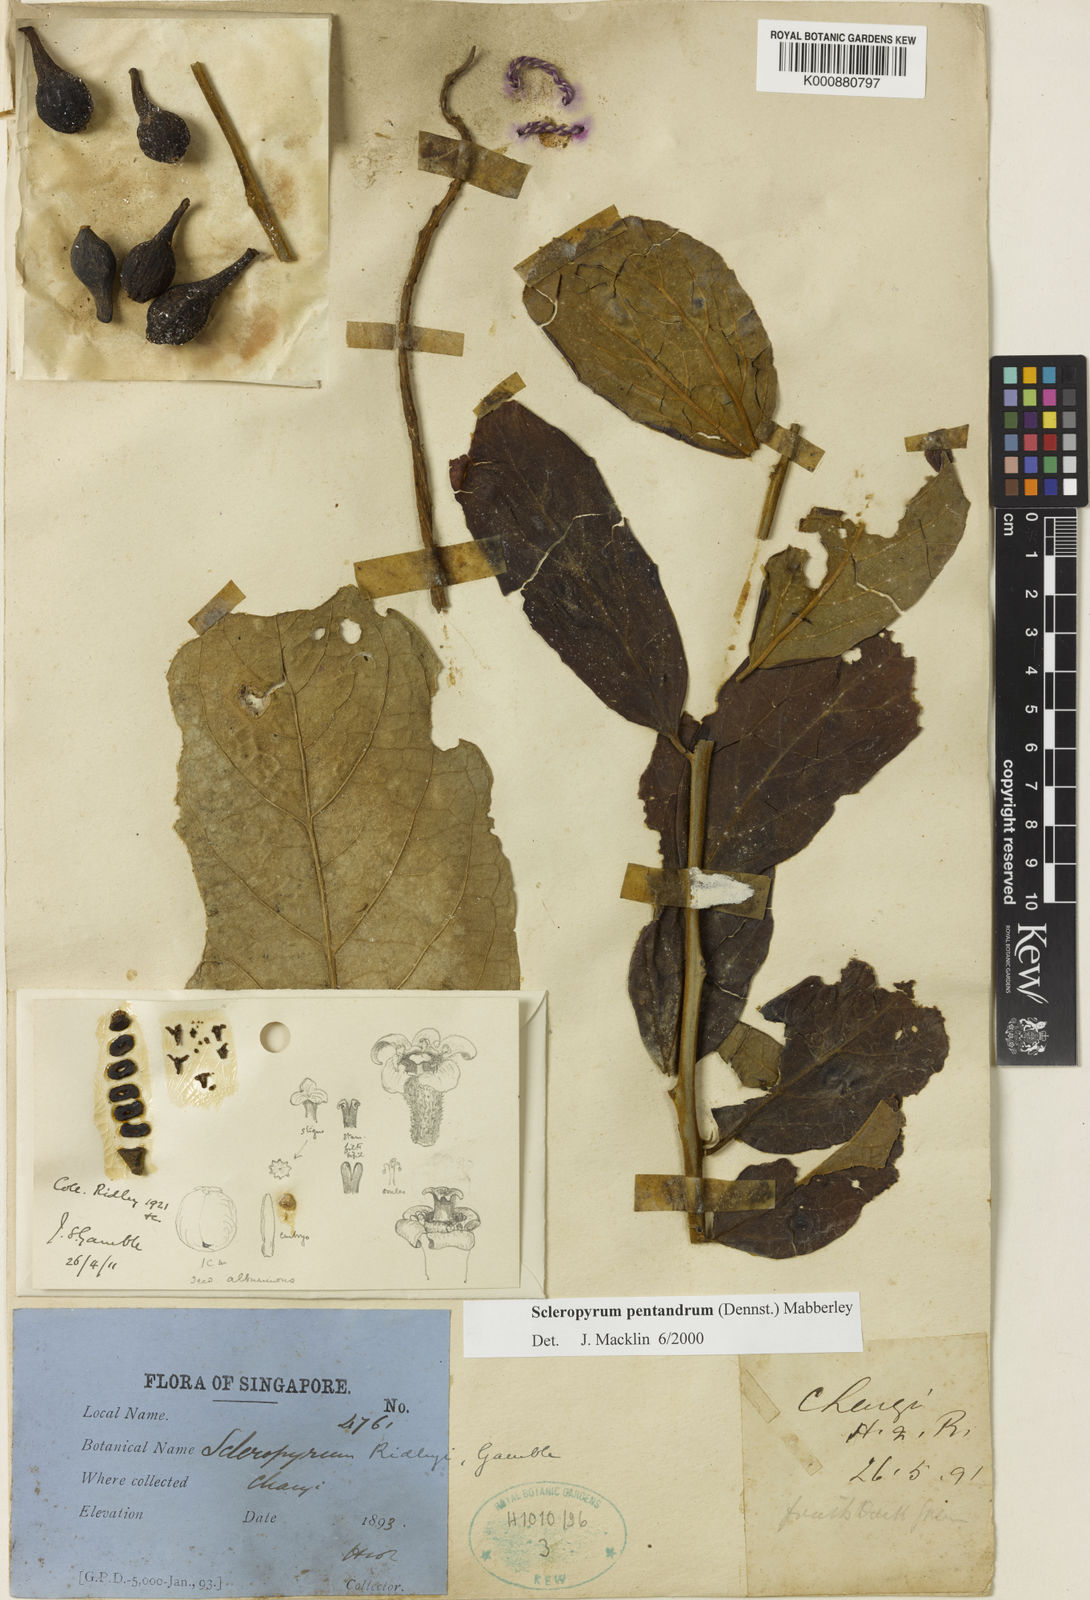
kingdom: Plantae
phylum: Tracheophyta
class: Magnoliopsida
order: Santalales
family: Cervantesiaceae
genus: Scleropyrum
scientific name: Scleropyrum pentandrum
